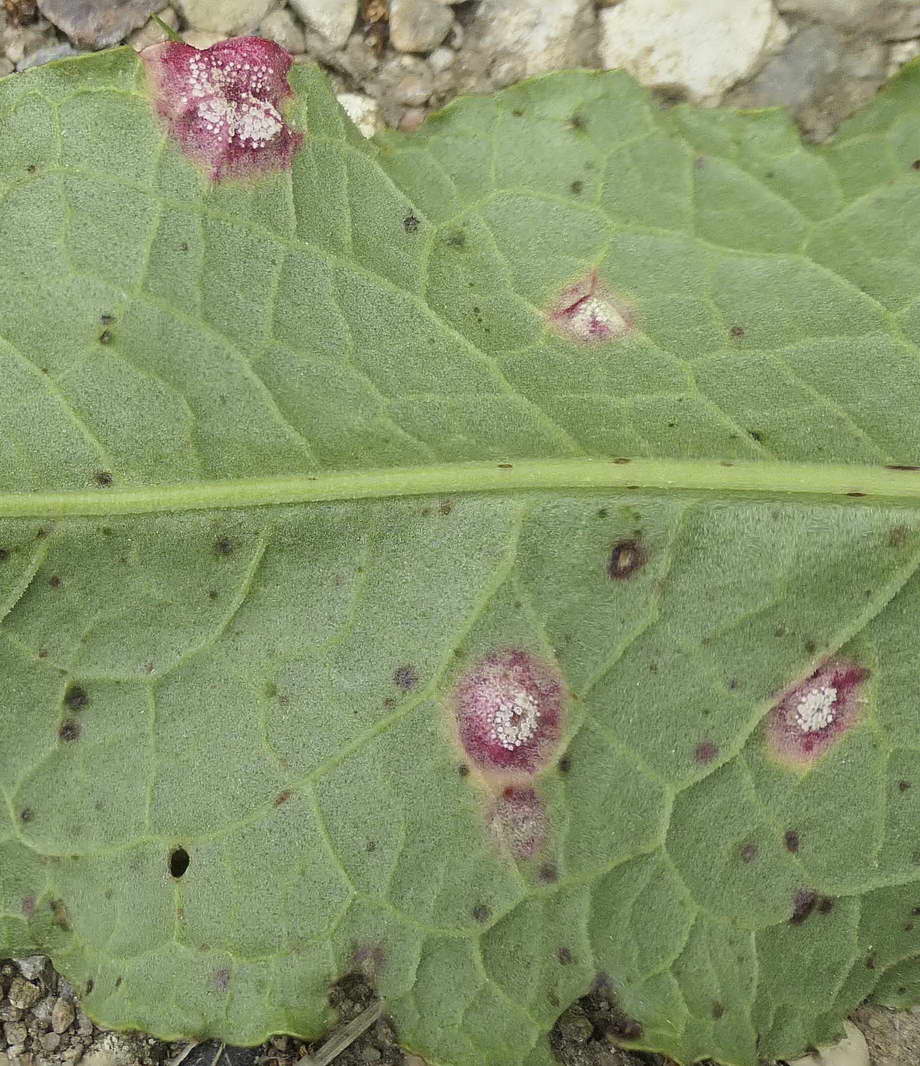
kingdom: Fungi
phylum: Basidiomycota
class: Pucciniomycetes
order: Pucciniales
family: Pucciniaceae
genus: Puccinia
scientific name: Puccinia phragmitis
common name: tagrør-tvecellerust
